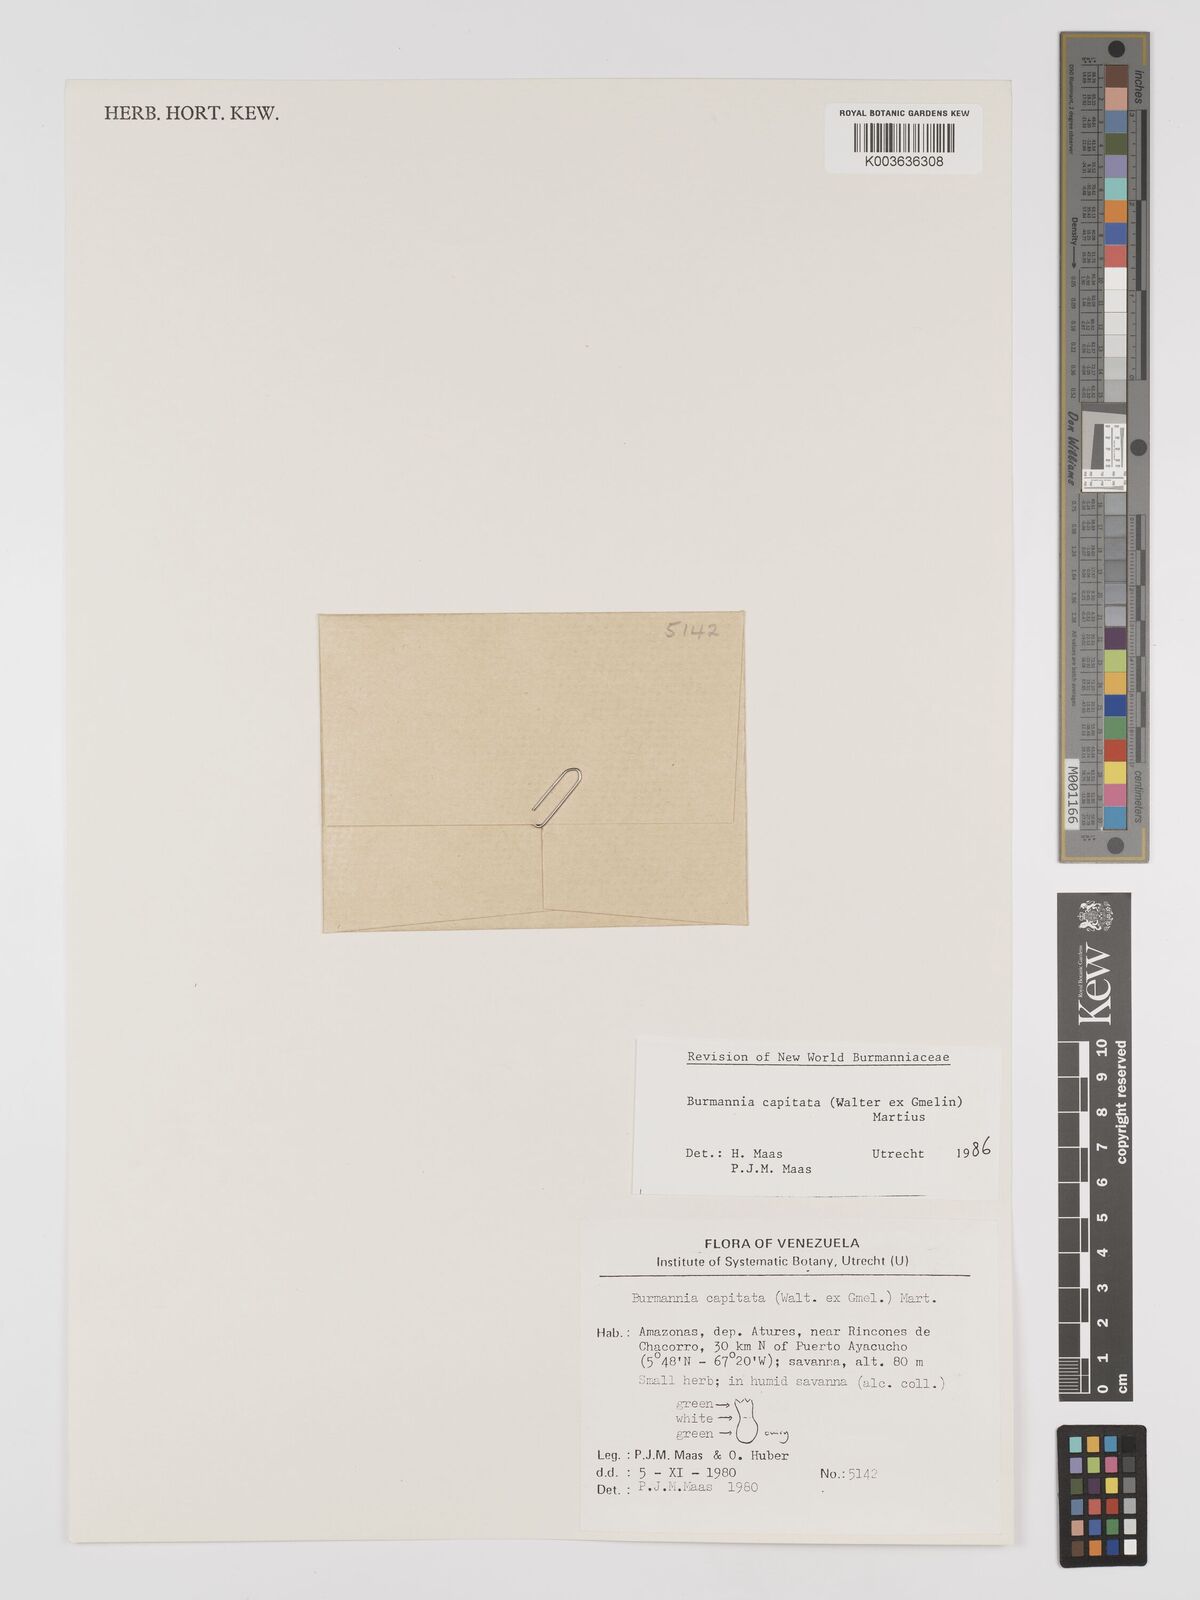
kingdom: Plantae
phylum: Tracheophyta
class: Liliopsida
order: Dioscoreales
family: Burmanniaceae
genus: Burmannia
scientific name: Burmannia capitata
